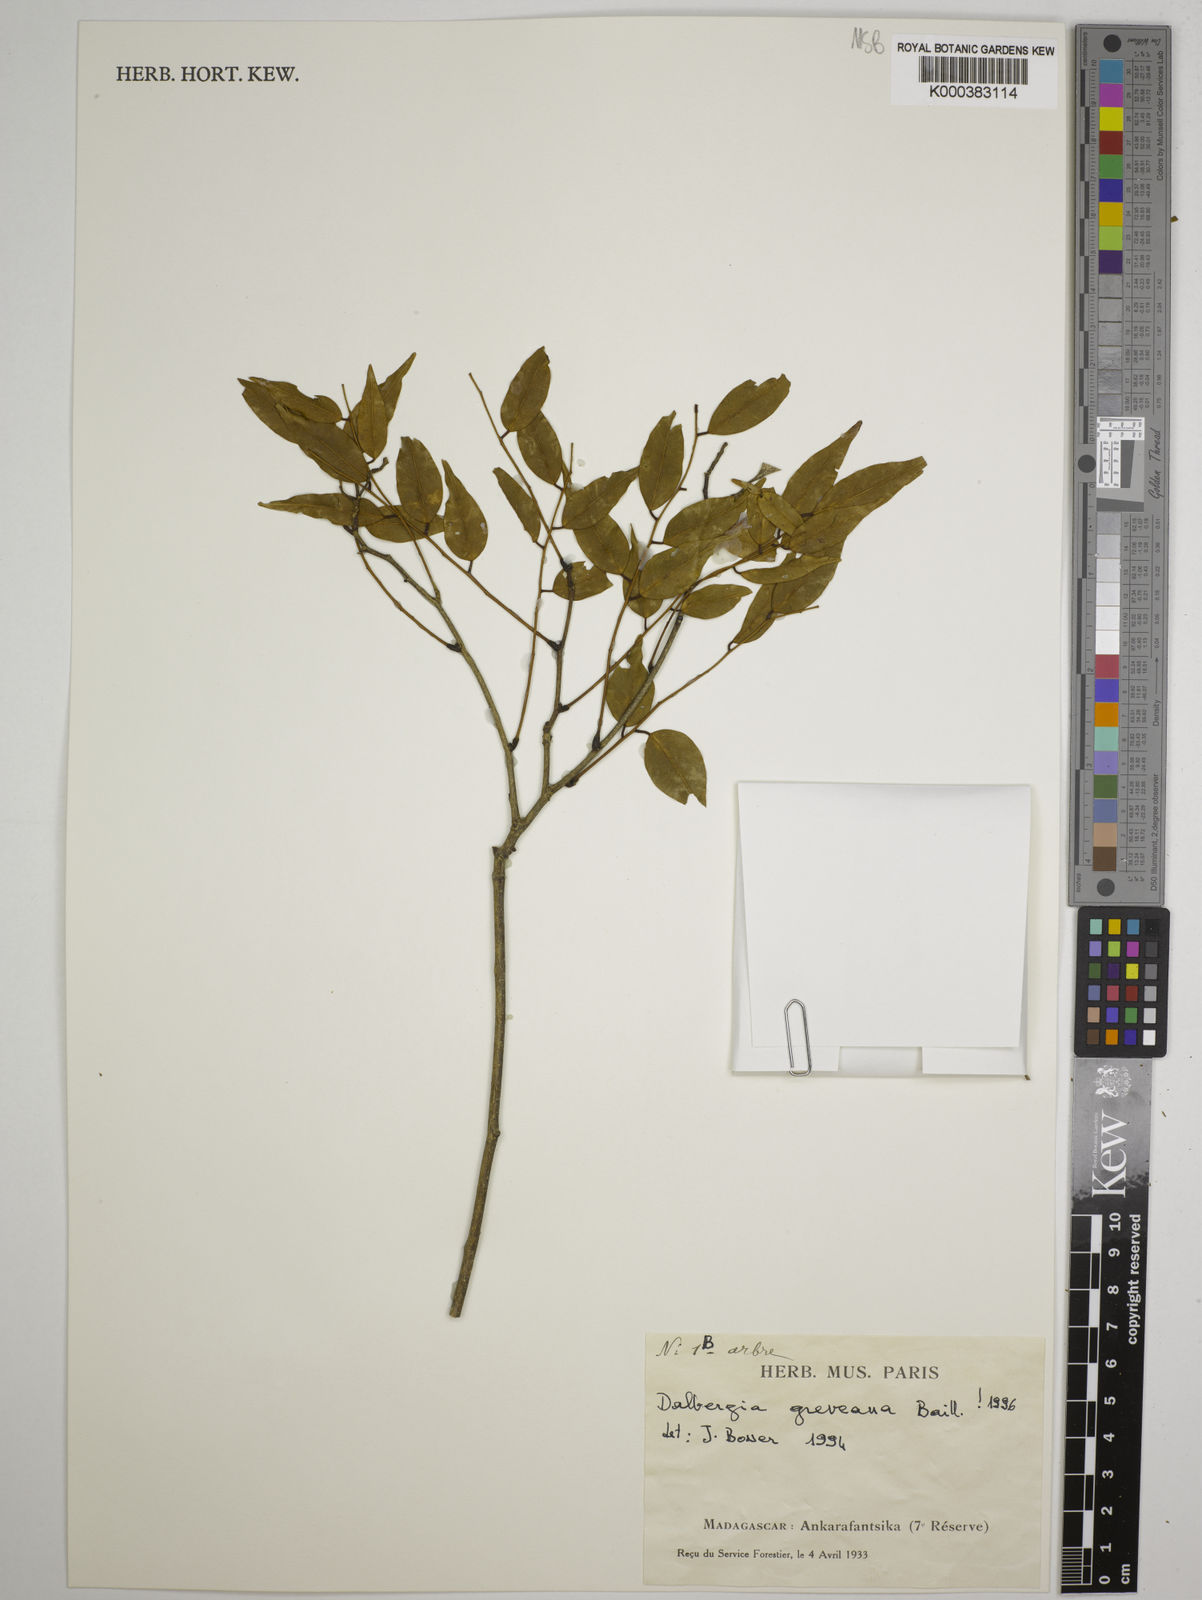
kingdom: Plantae
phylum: Tracheophyta
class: Magnoliopsida
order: Fabales
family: Fabaceae
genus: Dalbergia
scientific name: Dalbergia greveana
